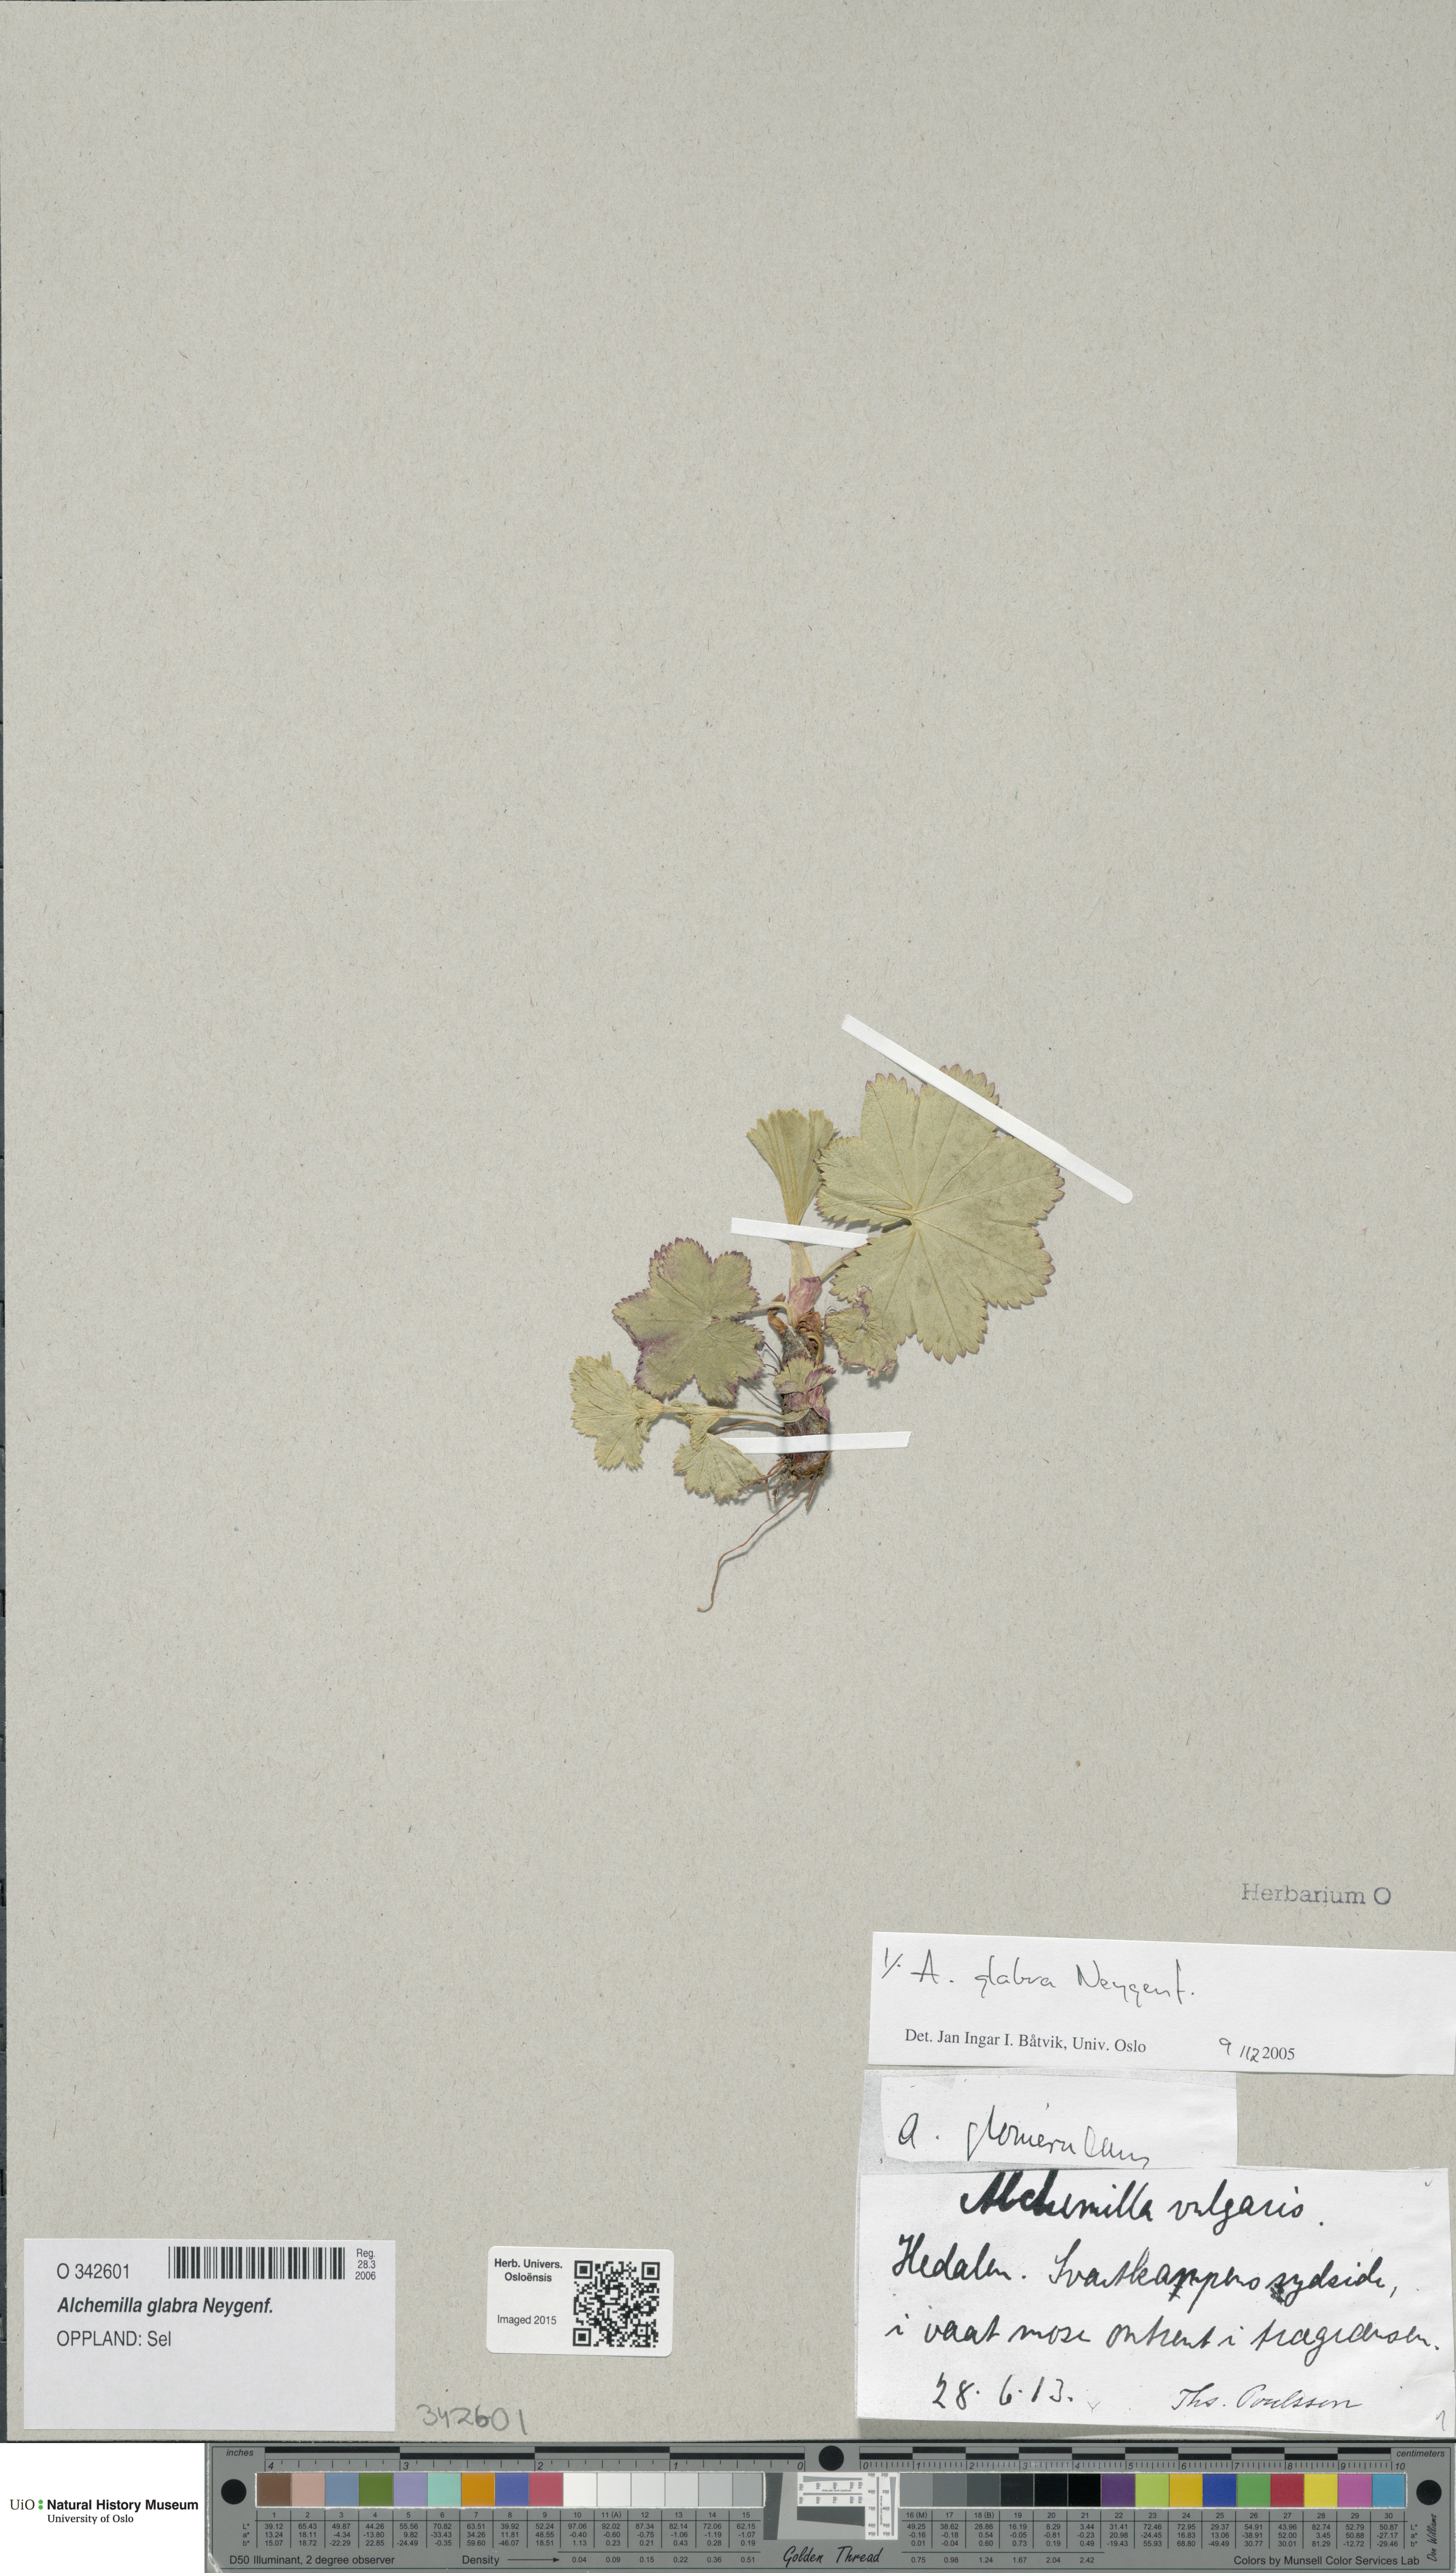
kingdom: Plantae
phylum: Tracheophyta
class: Magnoliopsida
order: Rosales
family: Rosaceae
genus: Alchemilla
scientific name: Alchemilla glabra
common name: Smooth lady's-mantle
